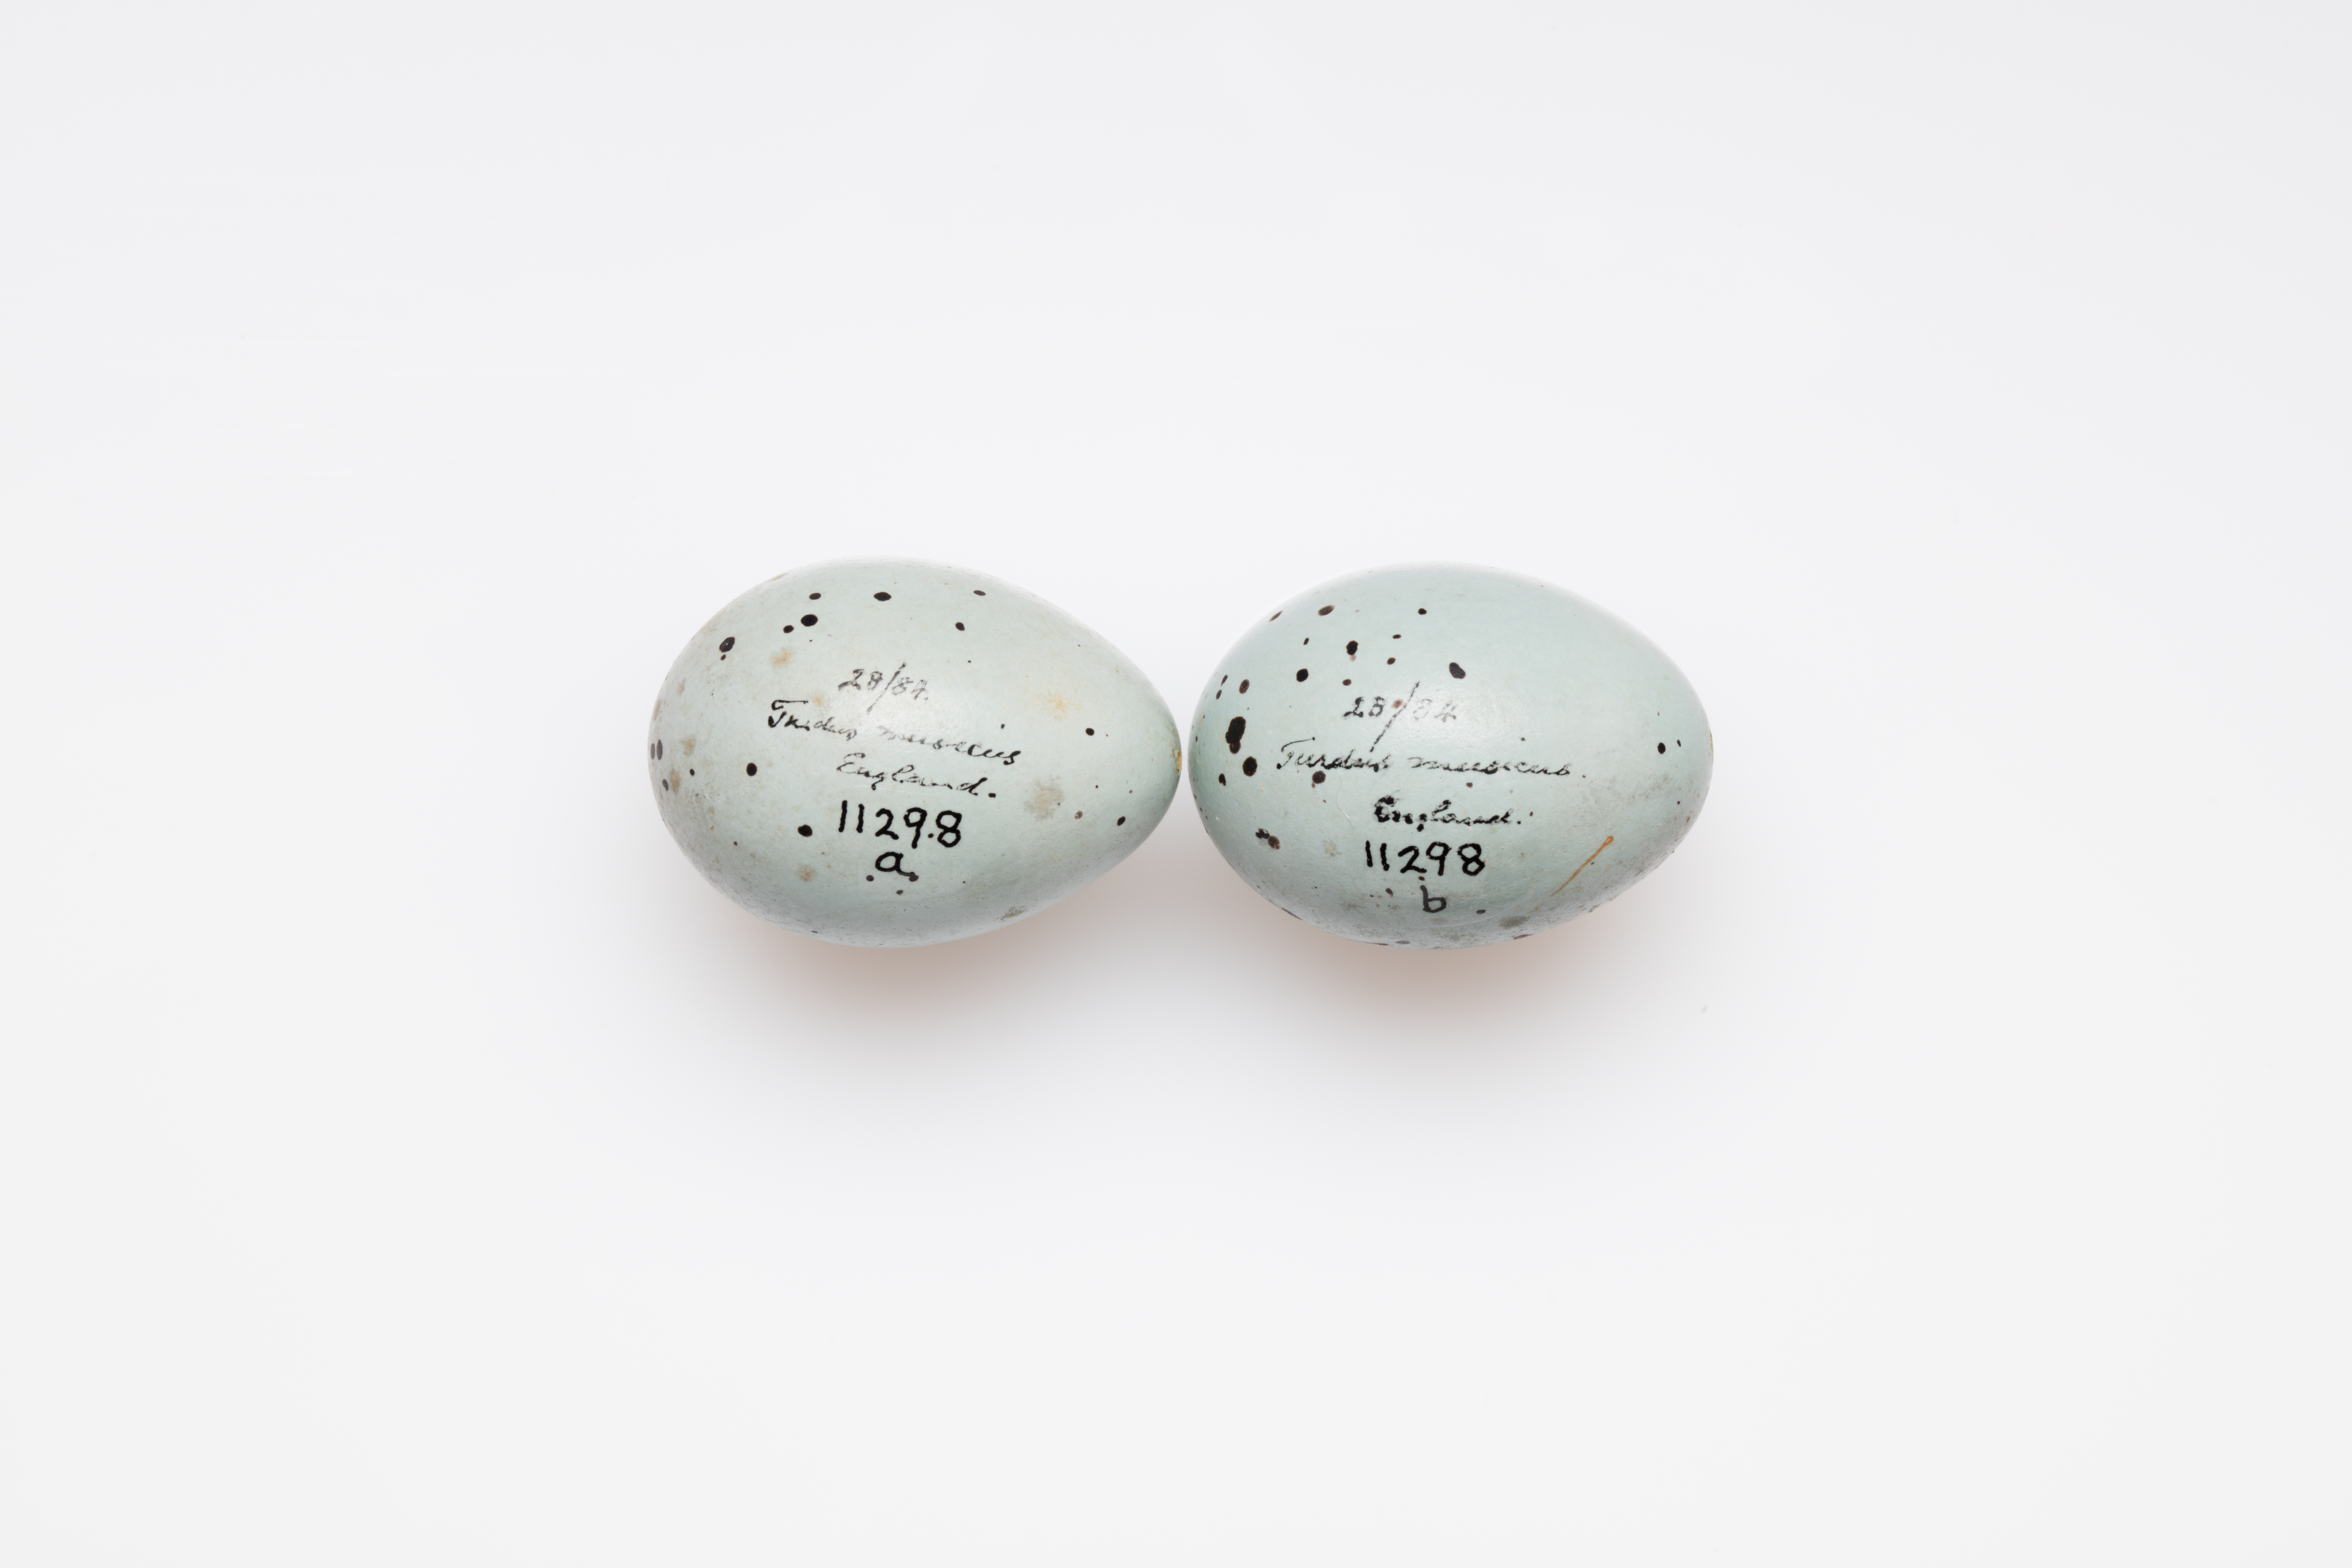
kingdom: Animalia
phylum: Chordata
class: Aves
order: Passeriformes
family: Turdidae
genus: Turdus
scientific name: Turdus philomelos
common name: Song thrush
